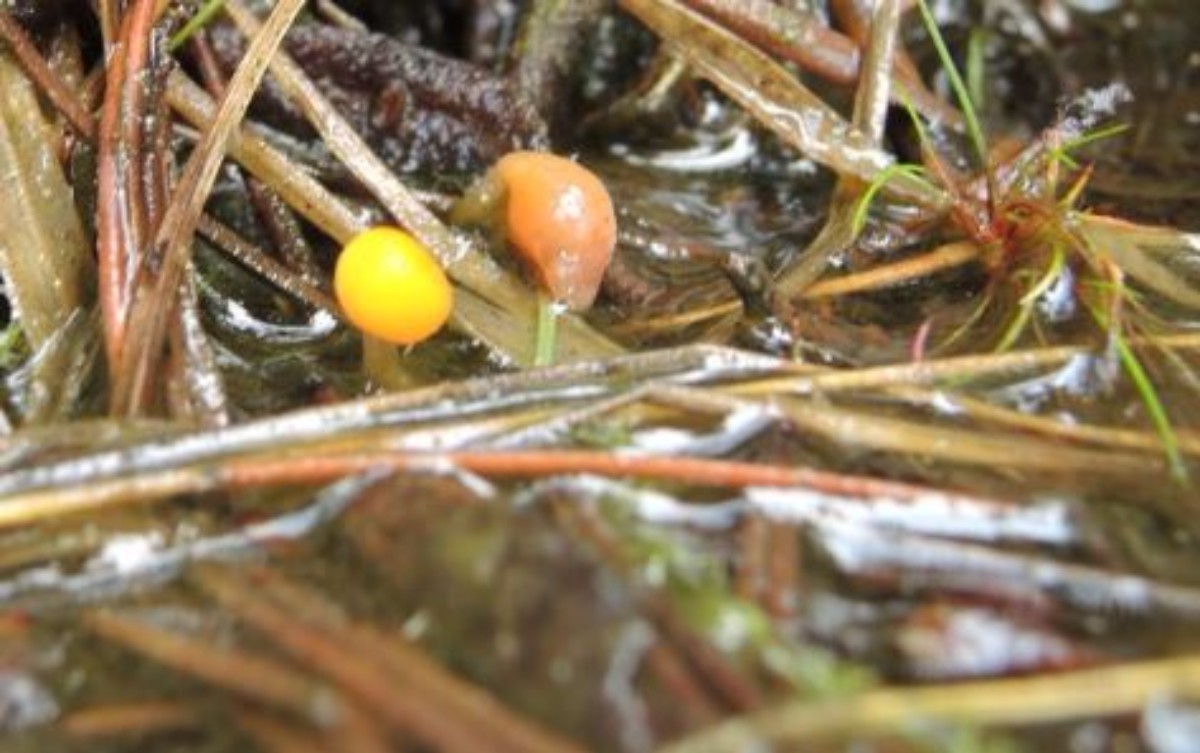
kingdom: Fungi
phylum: Ascomycota
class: Leotiomycetes
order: Helotiales
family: Cenangiaceae
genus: Mitrula
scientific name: Mitrula paludosa
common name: gul nøkketunge
